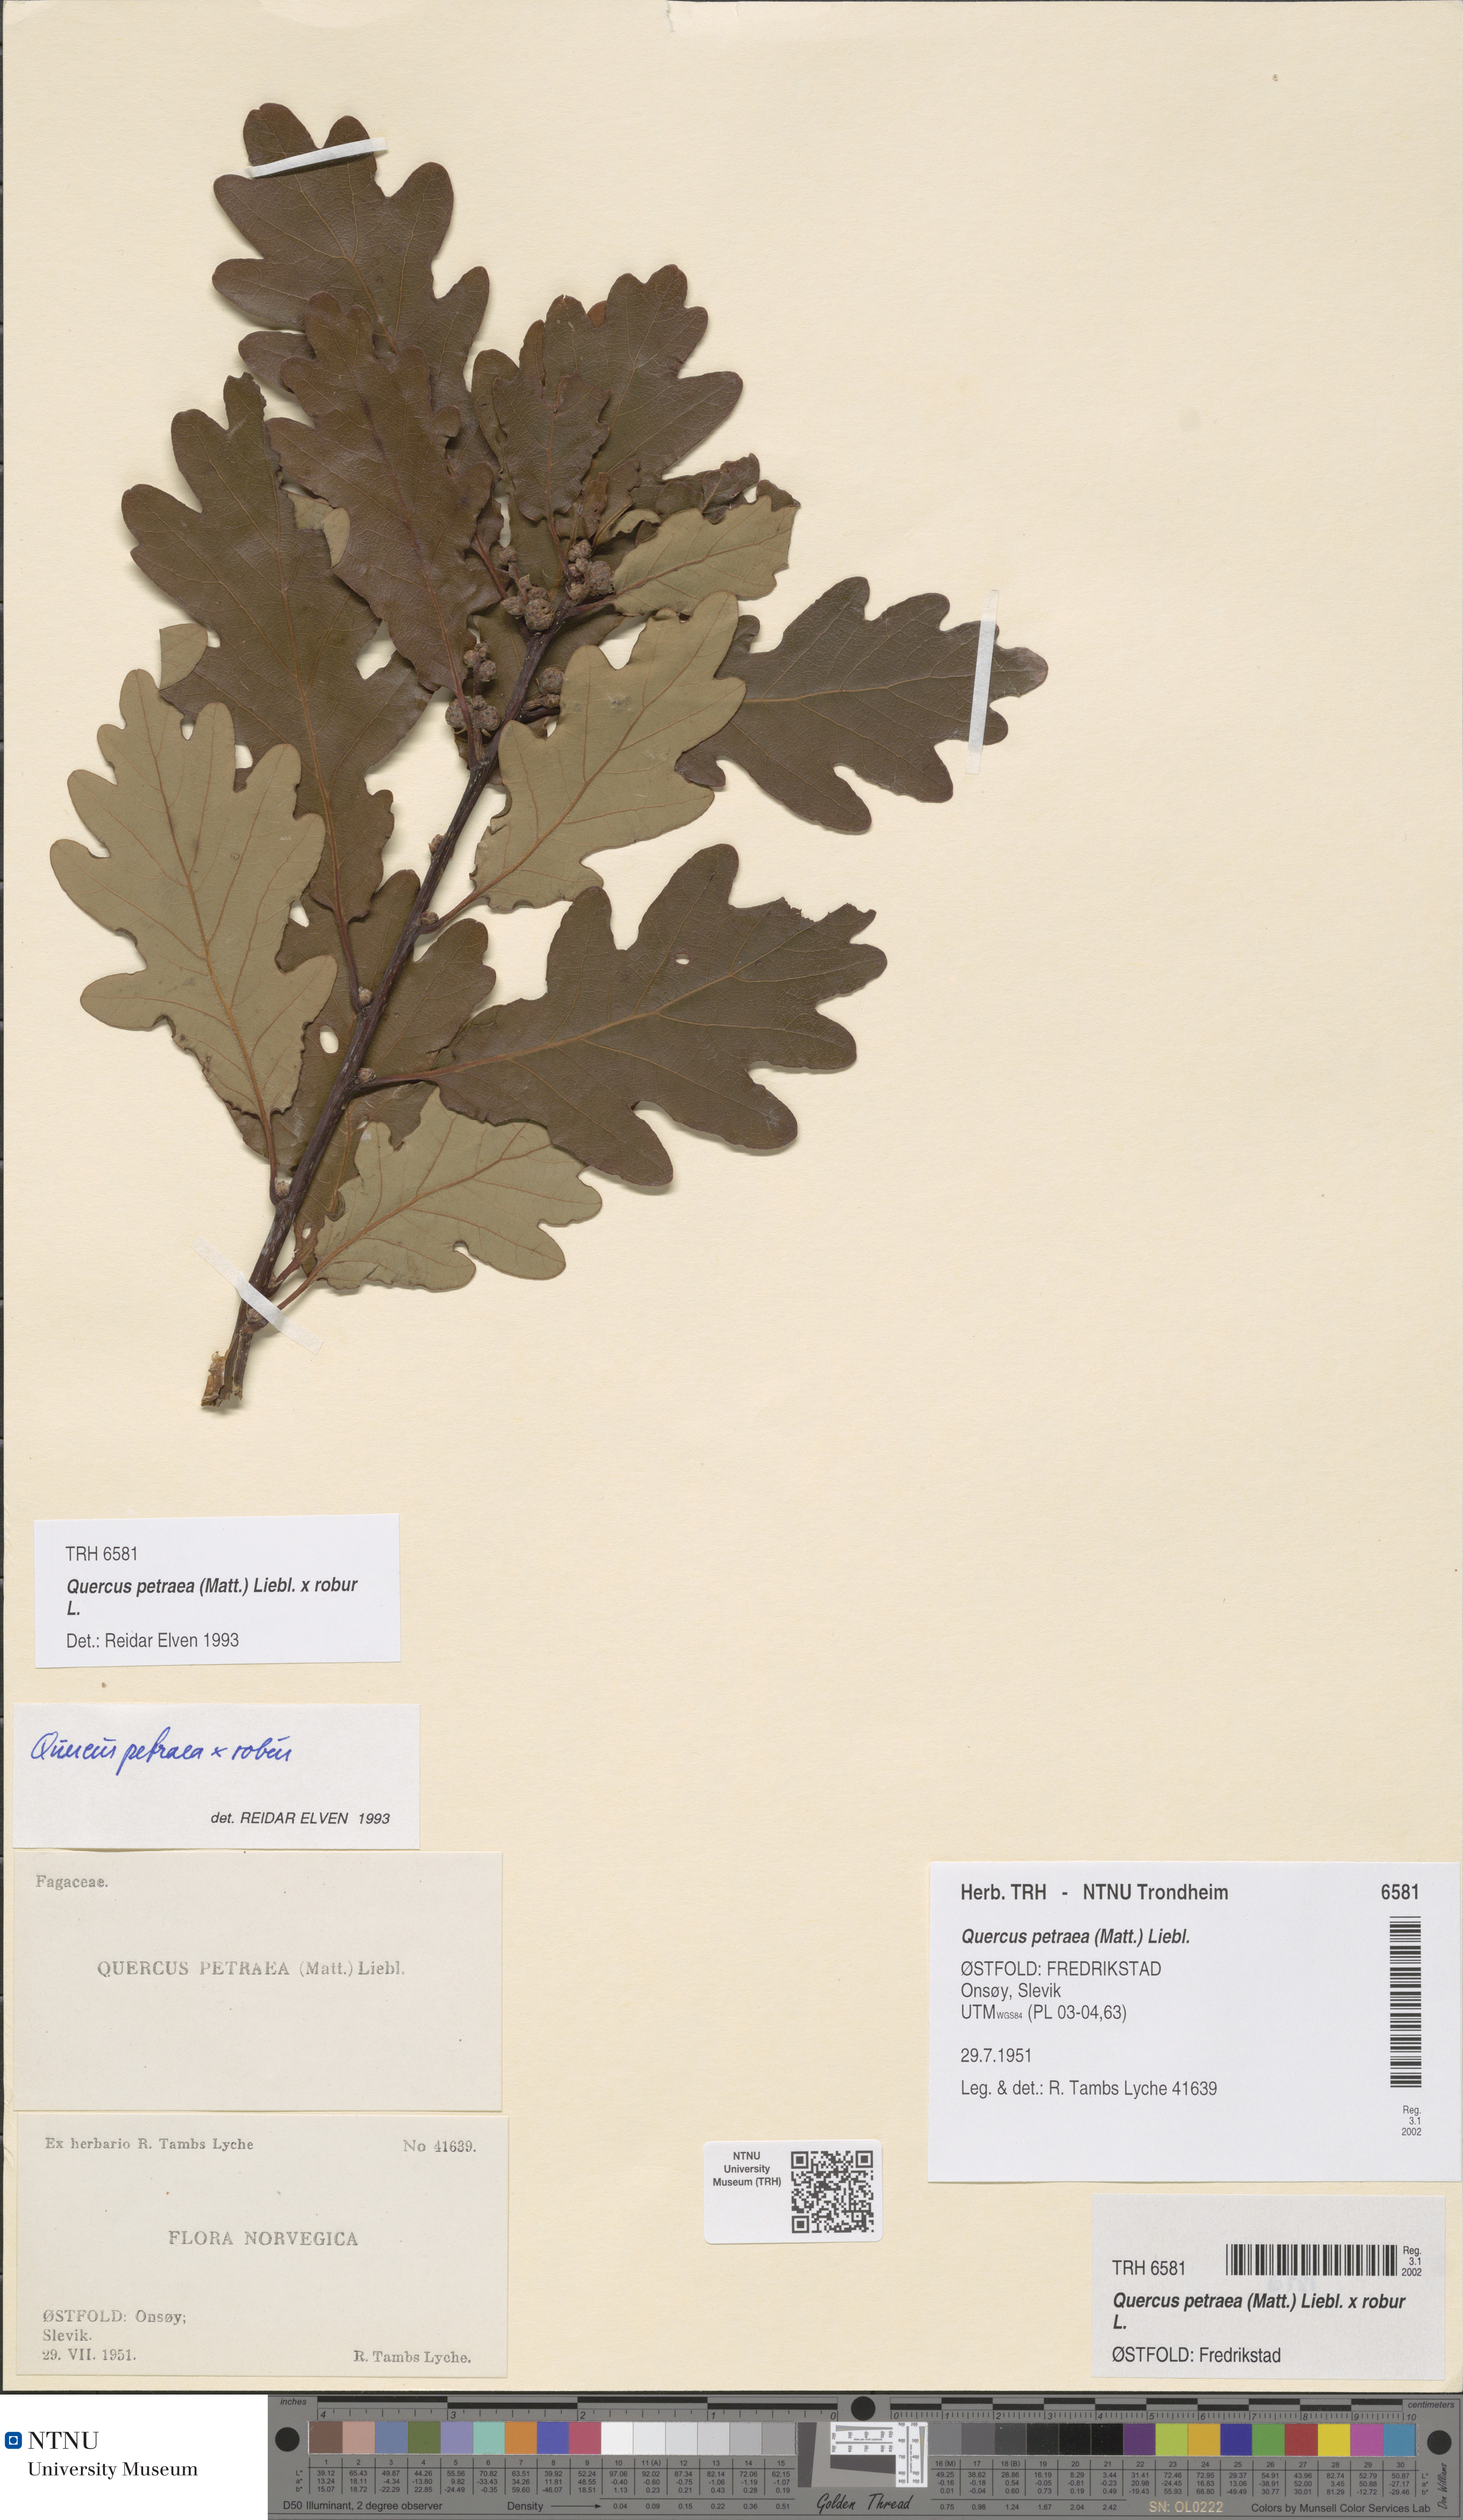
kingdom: Plantae
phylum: Tracheophyta
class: Magnoliopsida
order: Fagales
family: Fagaceae
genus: Quercus
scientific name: Quercus rosacea
